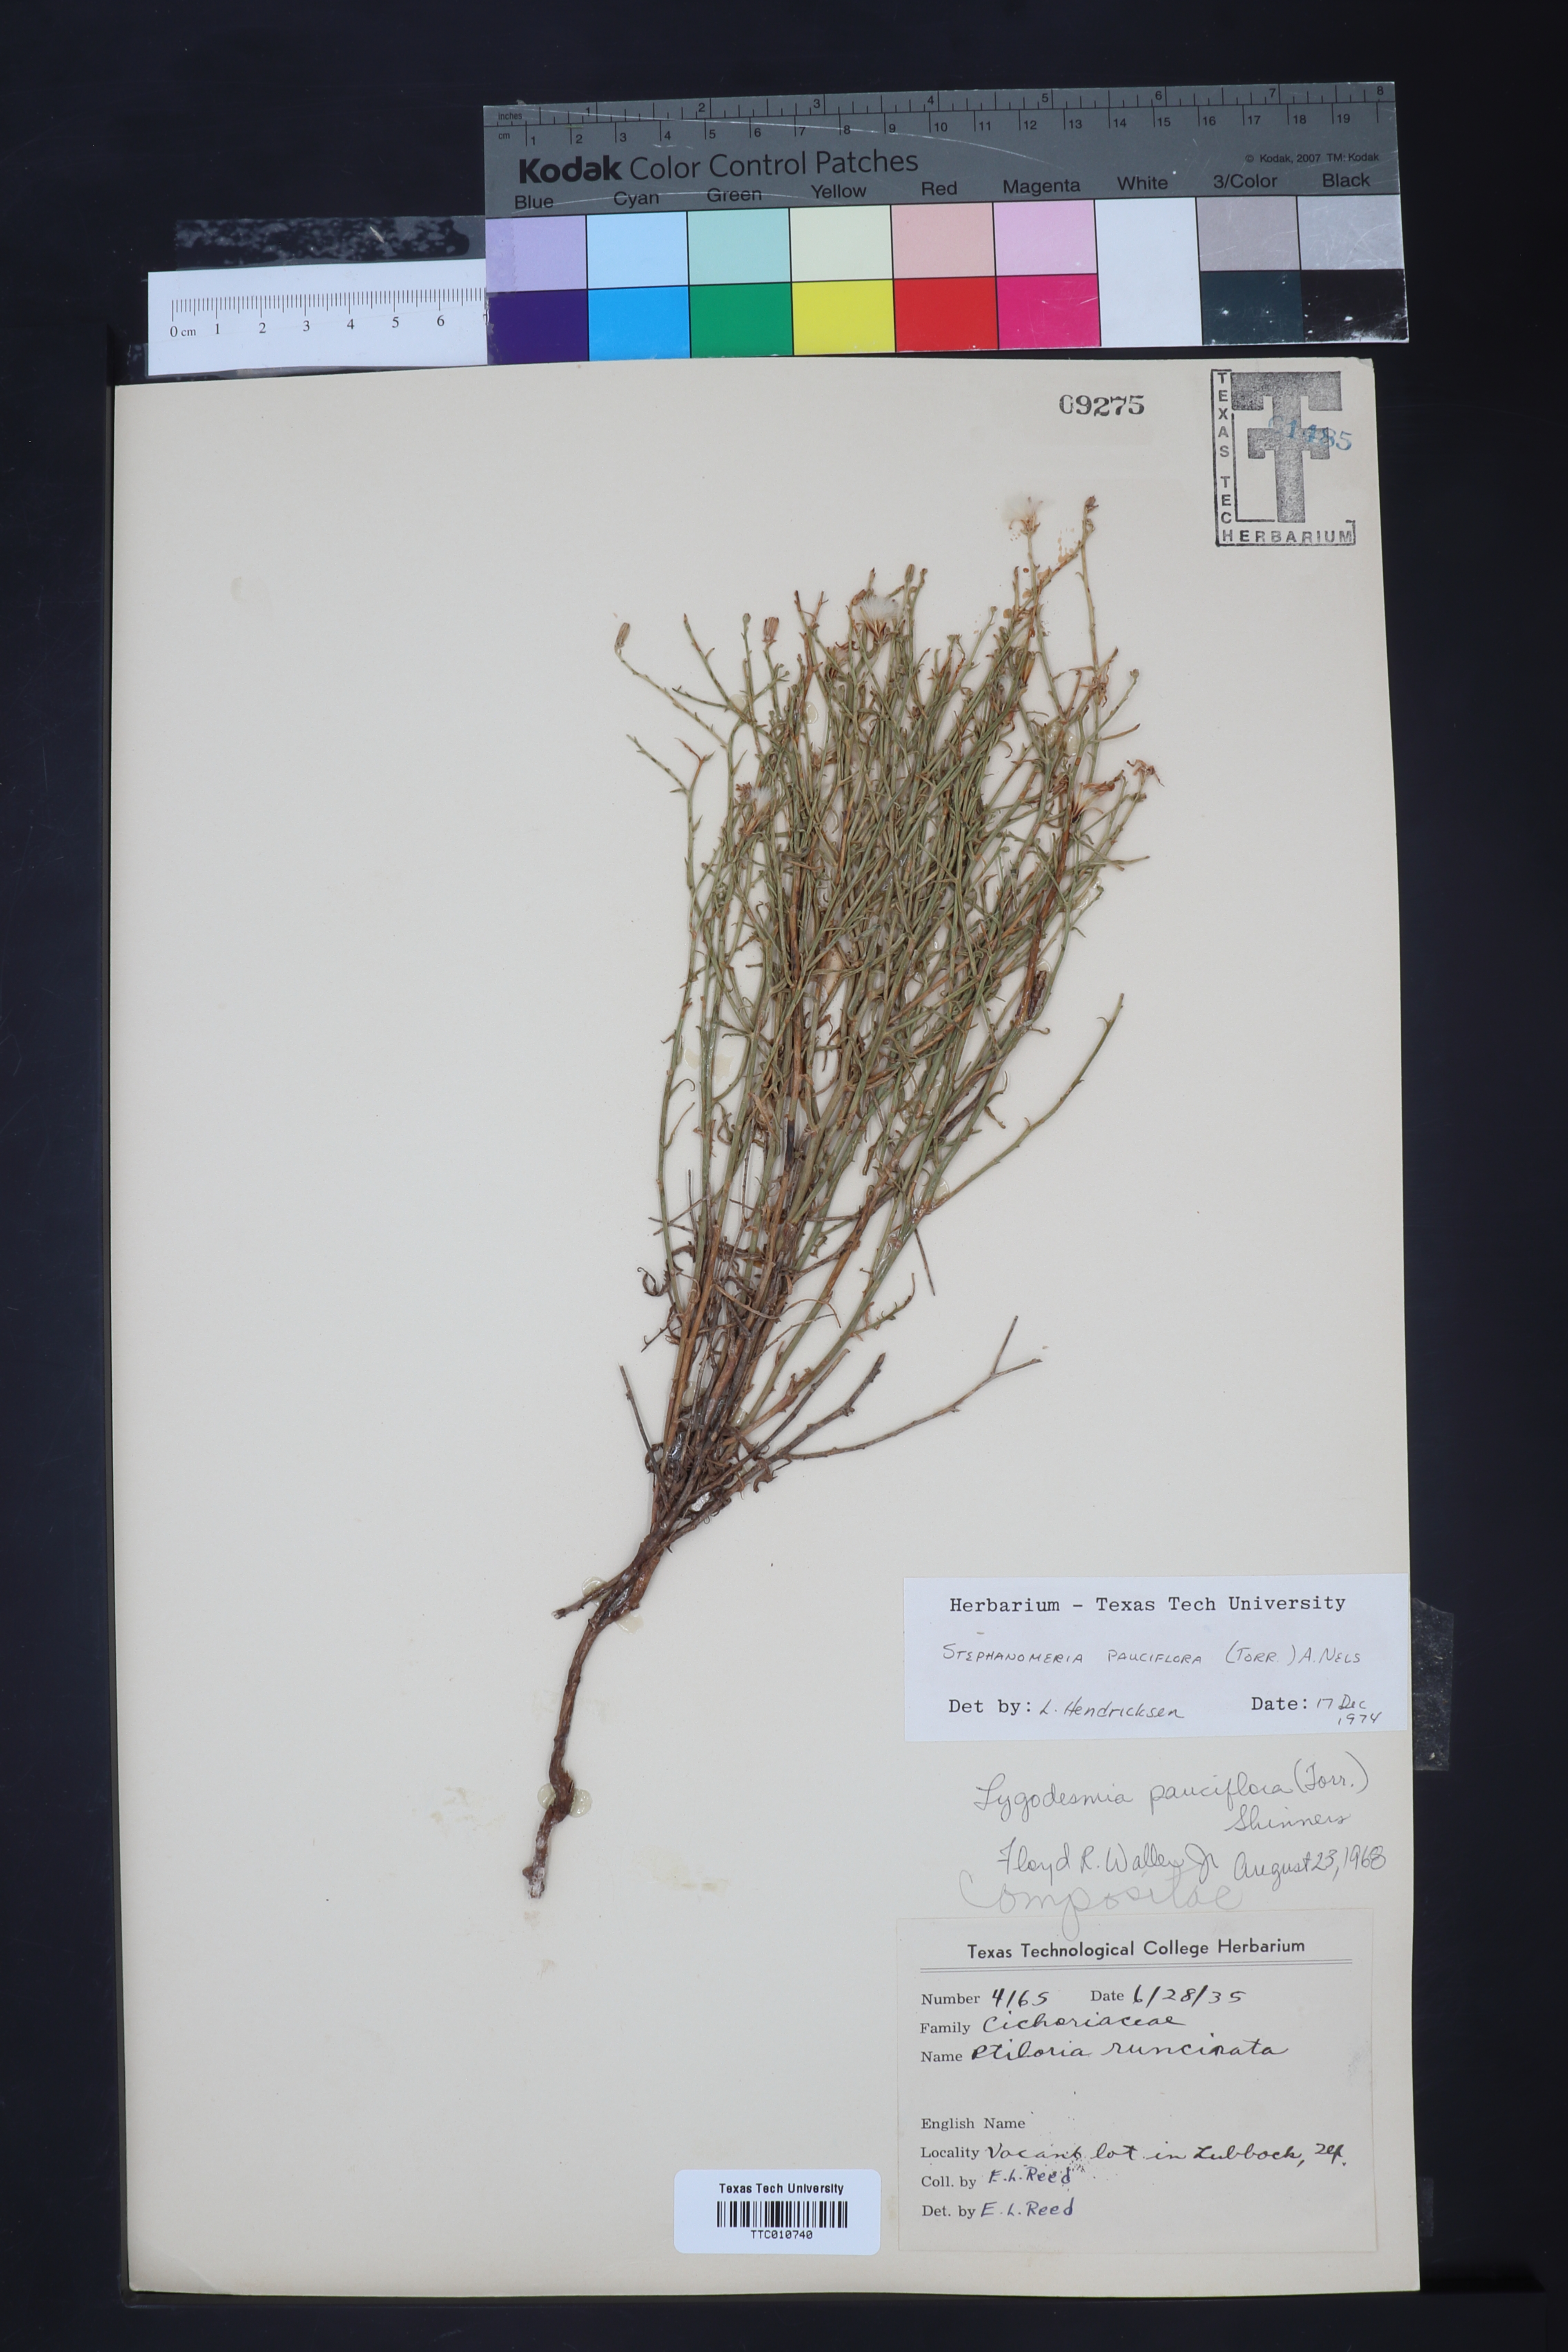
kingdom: Plantae
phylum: Tracheophyta
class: Magnoliopsida
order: Asterales
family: Asteraceae
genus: Stephanomeria
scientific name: Stephanomeria pauciflora
